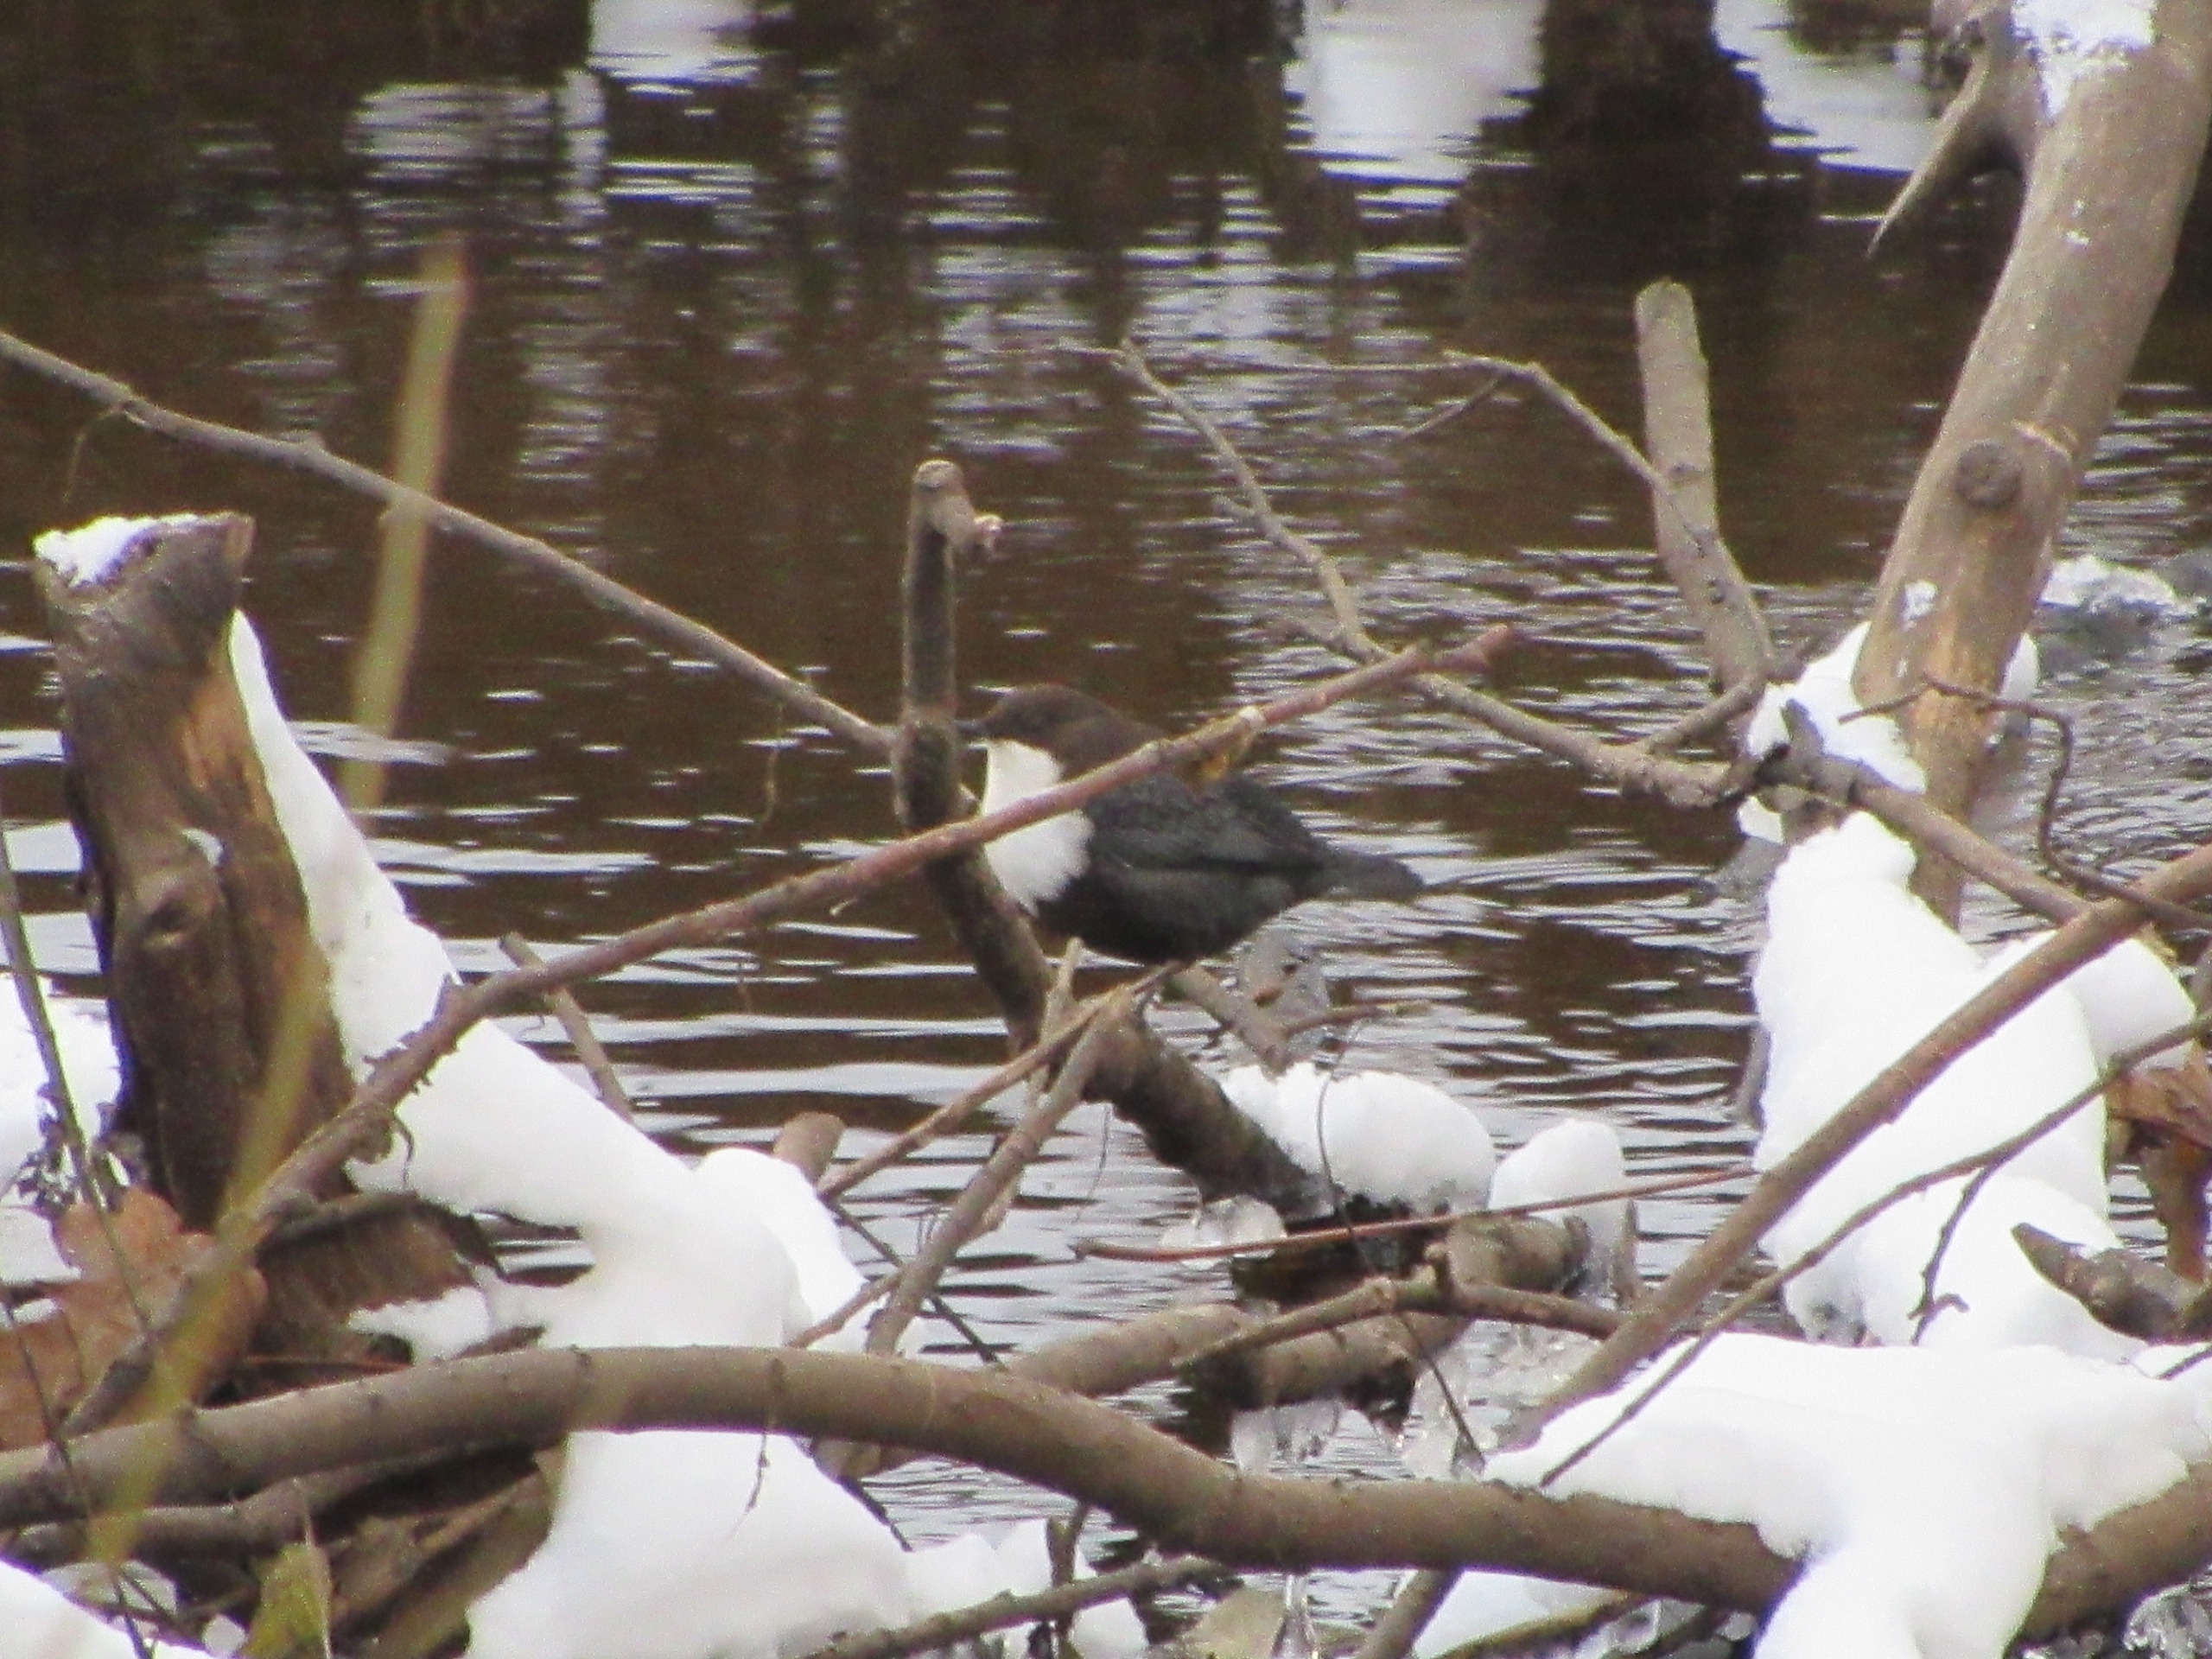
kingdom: Animalia
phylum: Chordata
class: Aves
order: Passeriformes
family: Cinclidae
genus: Cinclus
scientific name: Cinclus cinclus
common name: Vandstær
